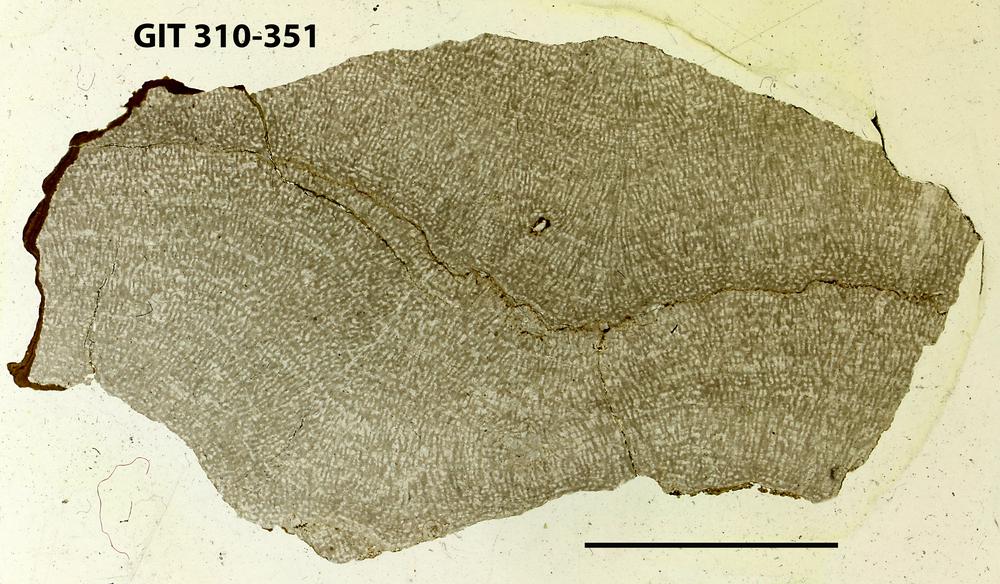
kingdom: Animalia
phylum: Porifera
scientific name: Porifera
